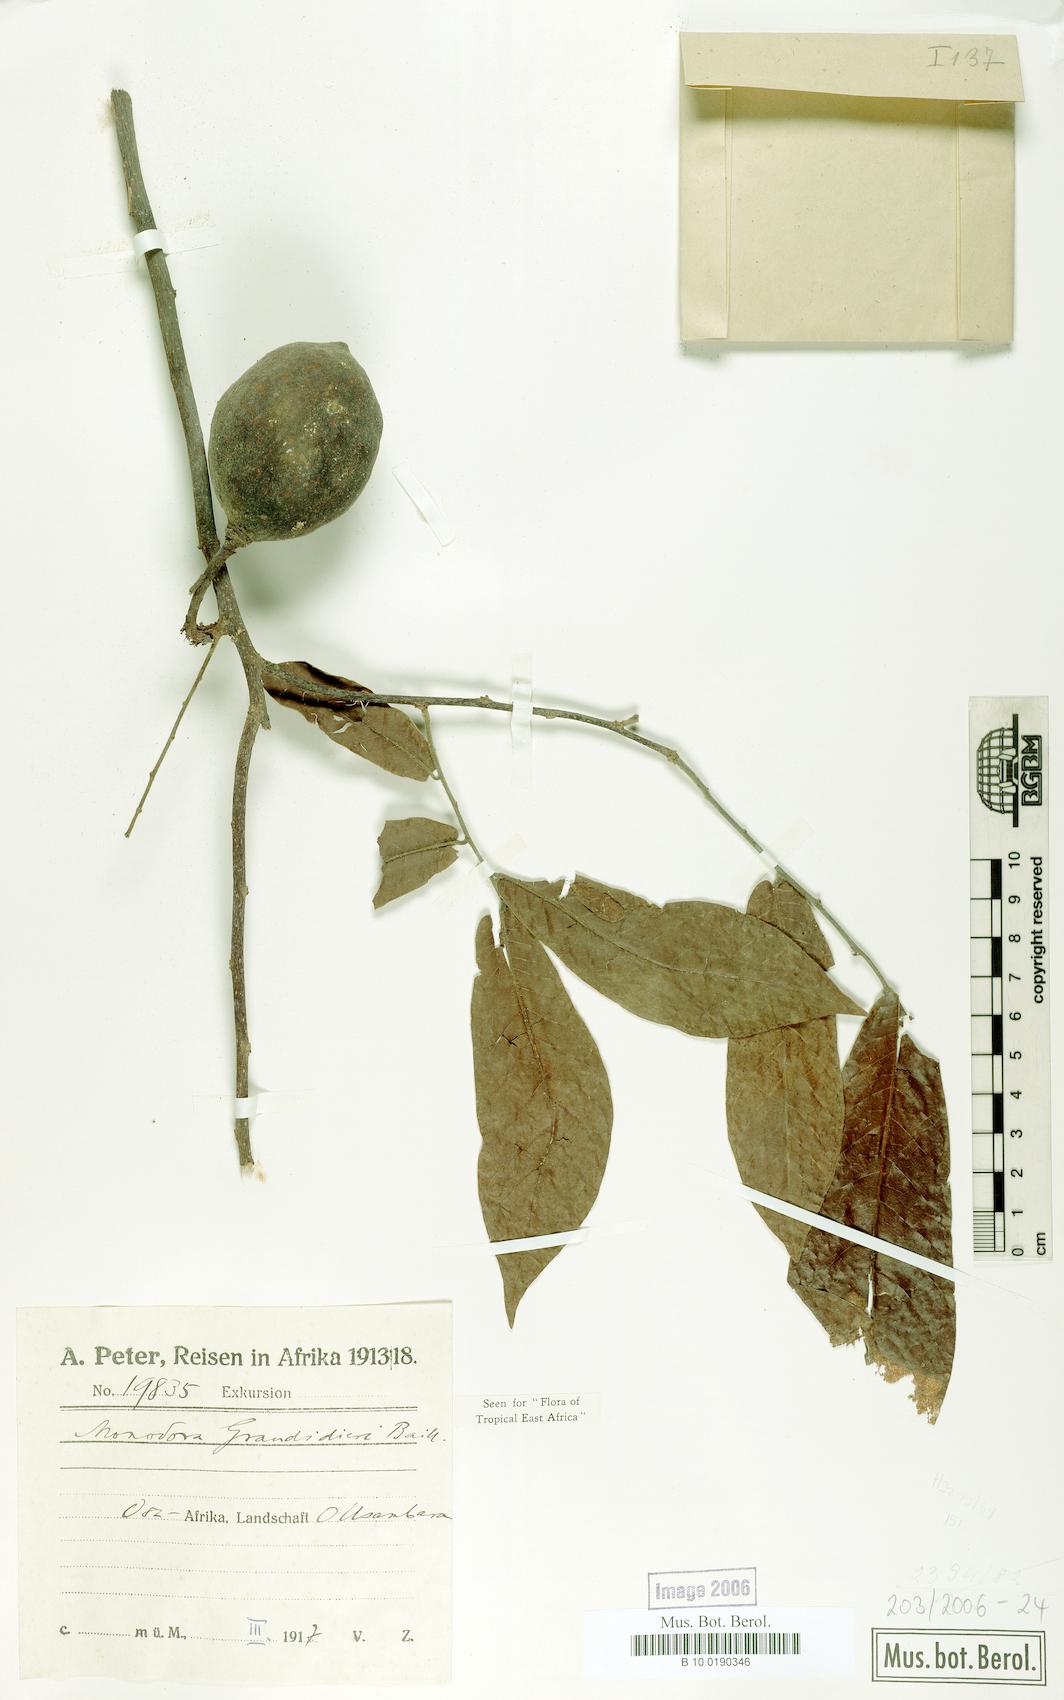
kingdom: Plantae
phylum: Tracheophyta
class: Magnoliopsida
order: Magnoliales
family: Annonaceae
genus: Monodora
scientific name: Monodora grandidieri
